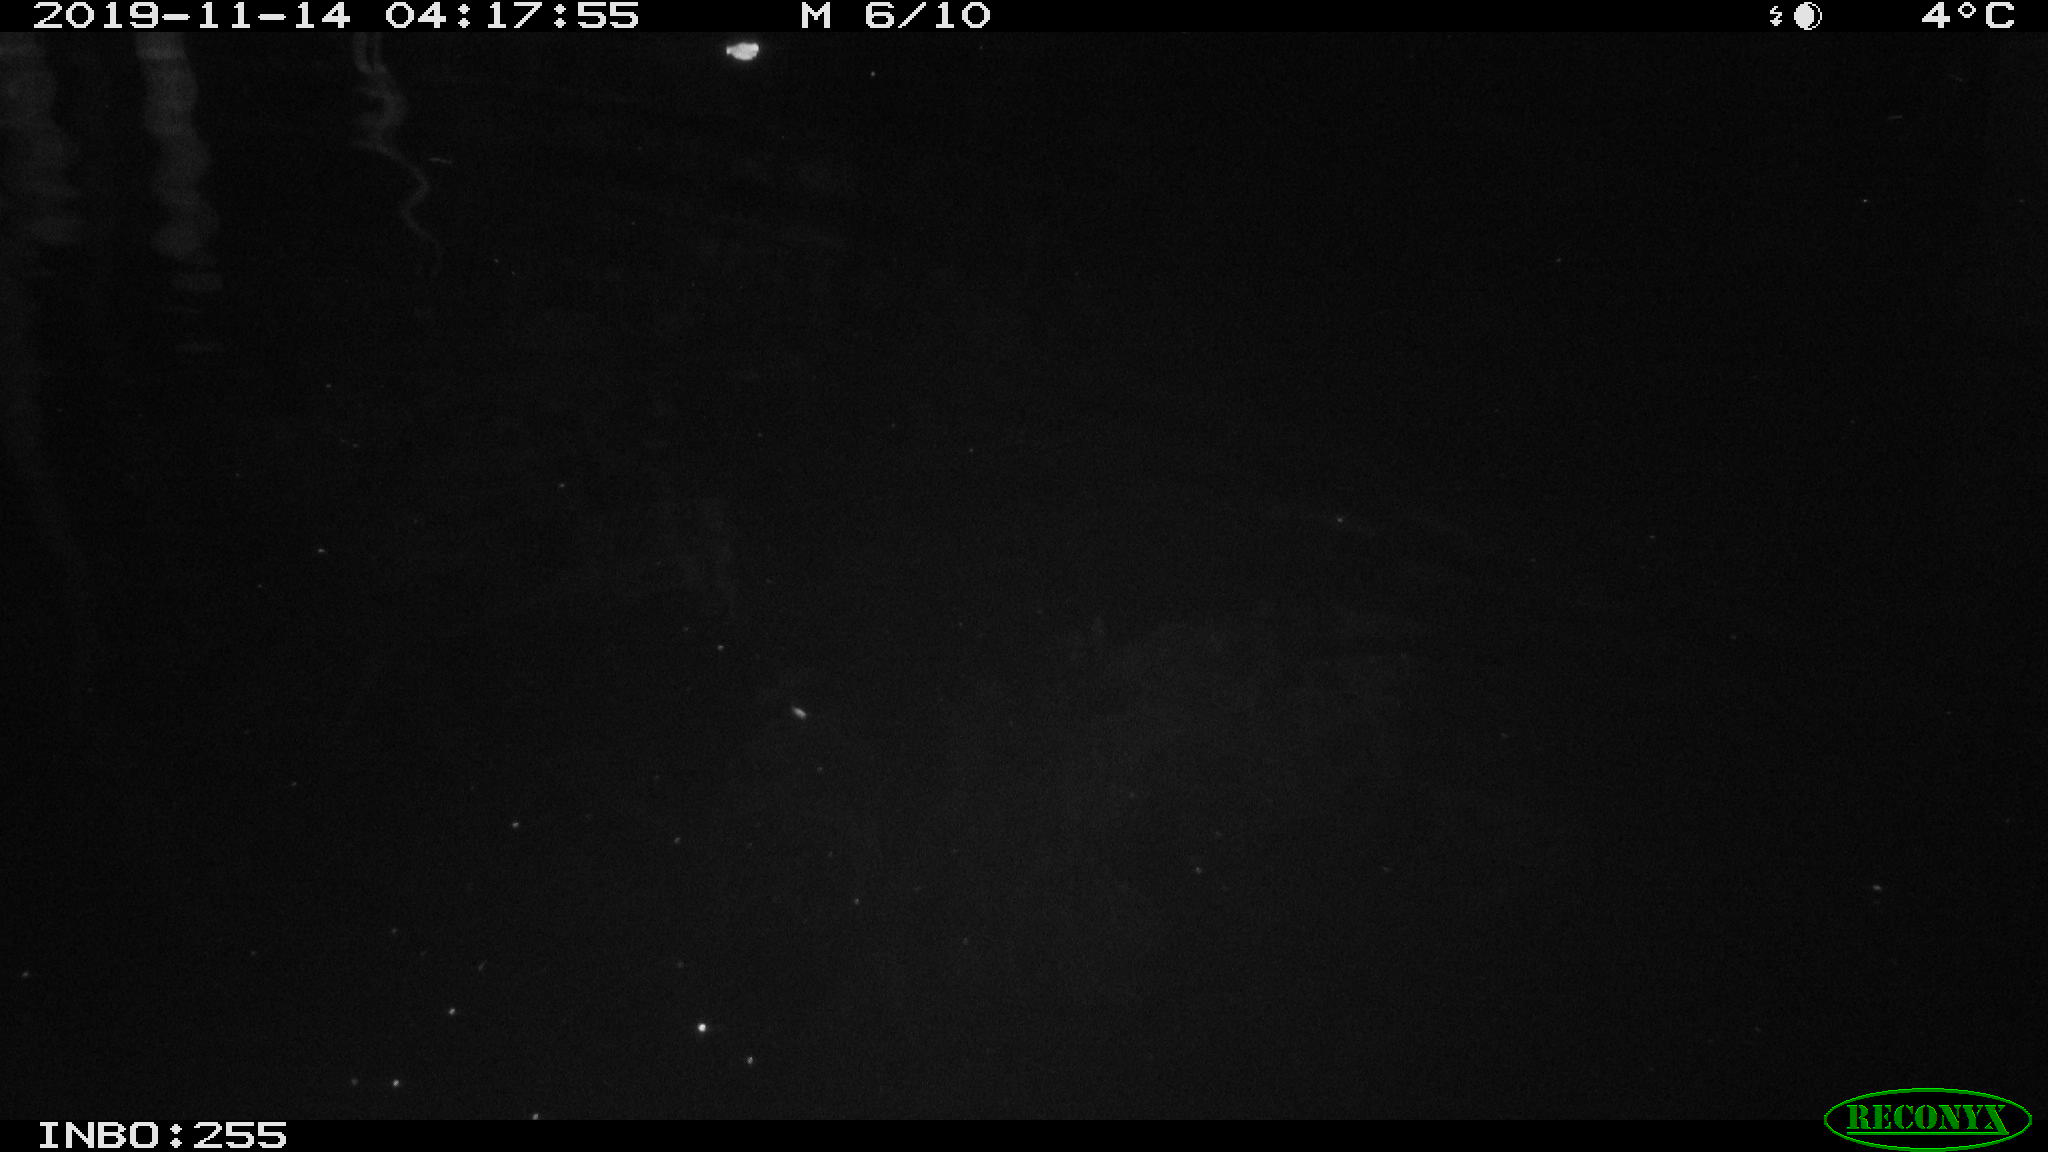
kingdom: Animalia
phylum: Chordata
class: Mammalia
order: Rodentia
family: Muridae
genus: Rattus
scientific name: Rattus norvegicus
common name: Brown rat
